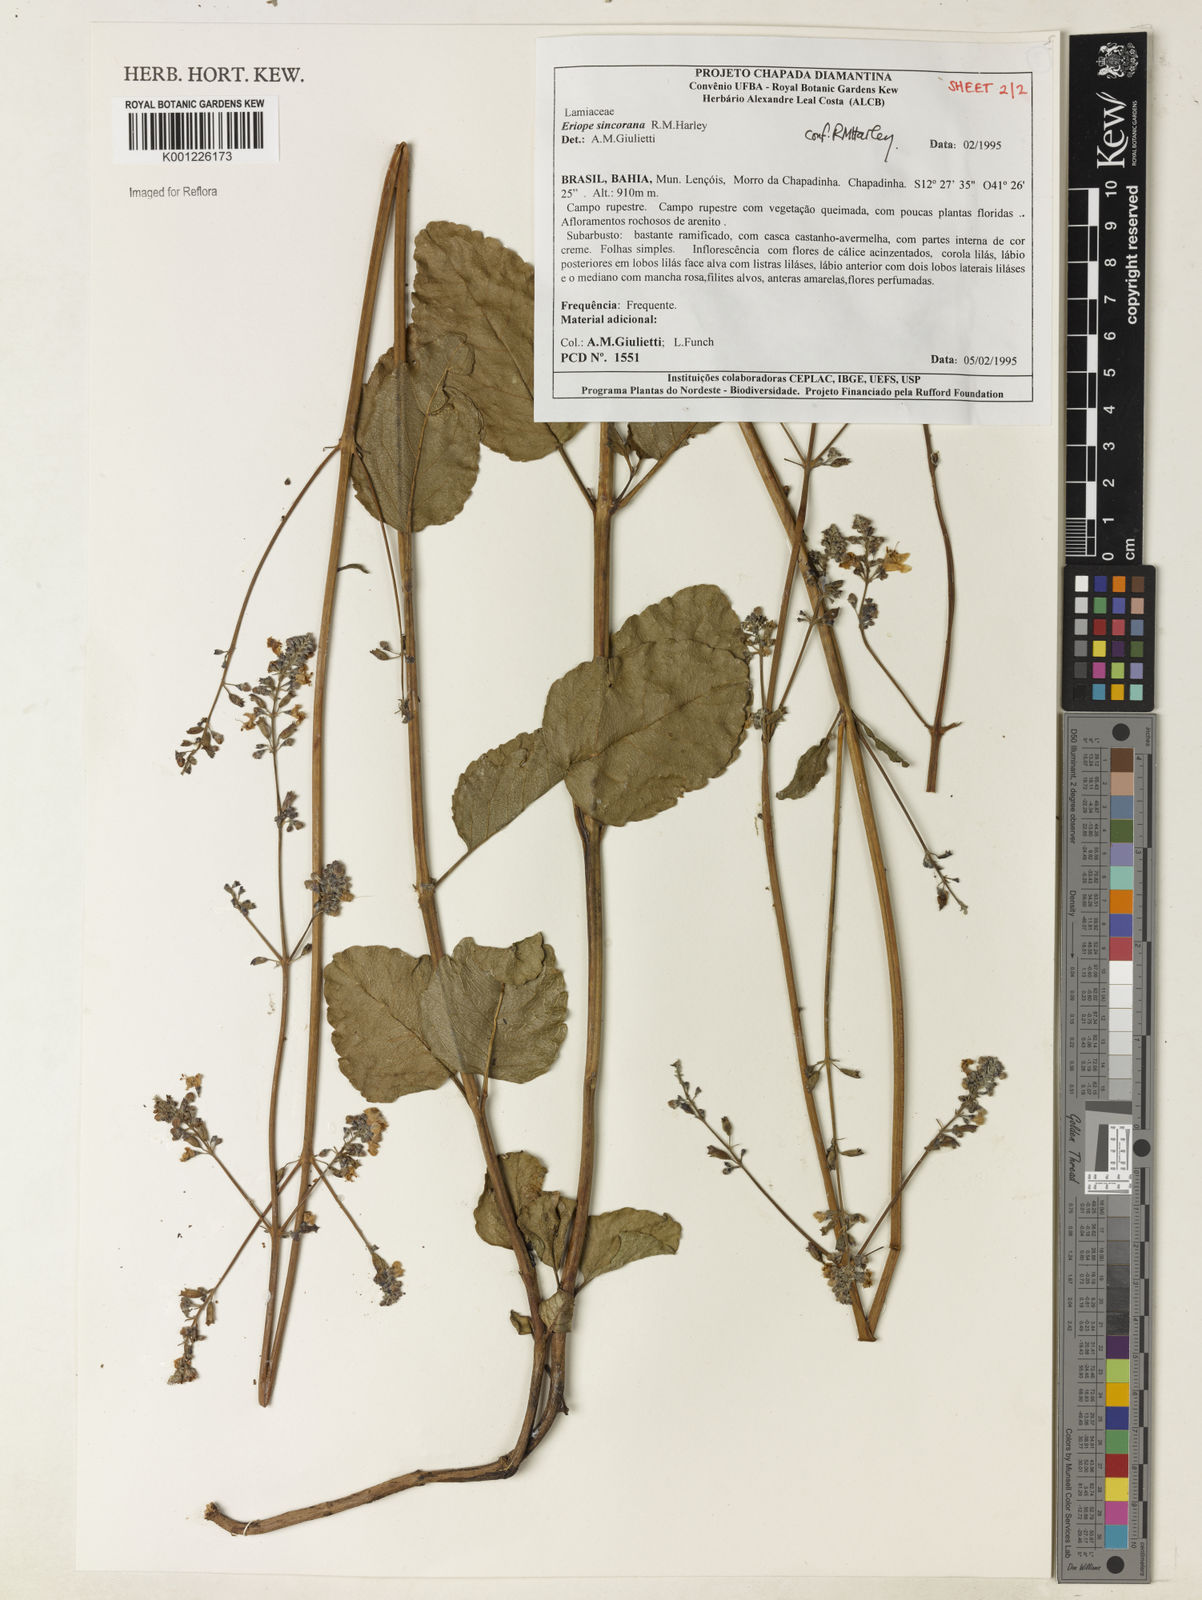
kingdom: Plantae
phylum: Tracheophyta
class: Magnoliopsida
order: Lamiales
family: Lamiaceae
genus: Eriope
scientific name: Eriope sincorana
